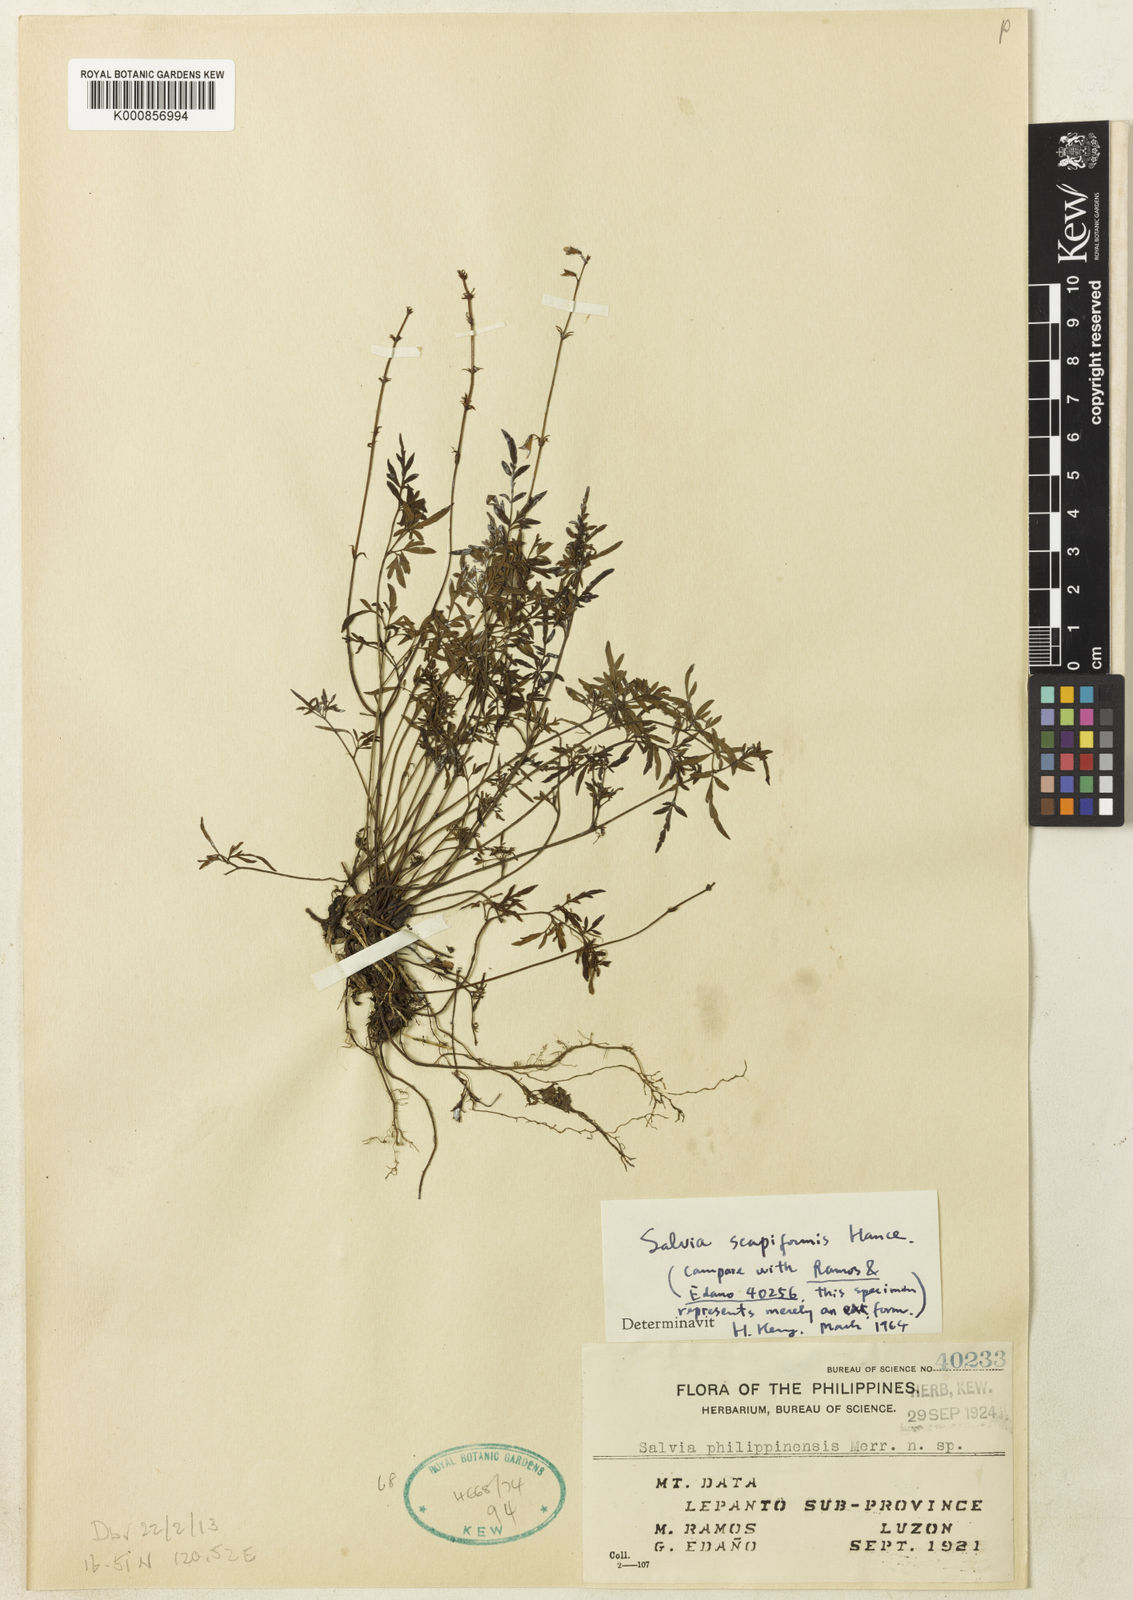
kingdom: Plantae
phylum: Tracheophyta
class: Magnoliopsida
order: Lamiales
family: Lamiaceae
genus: Salvia
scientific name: Salvia scapiformis
